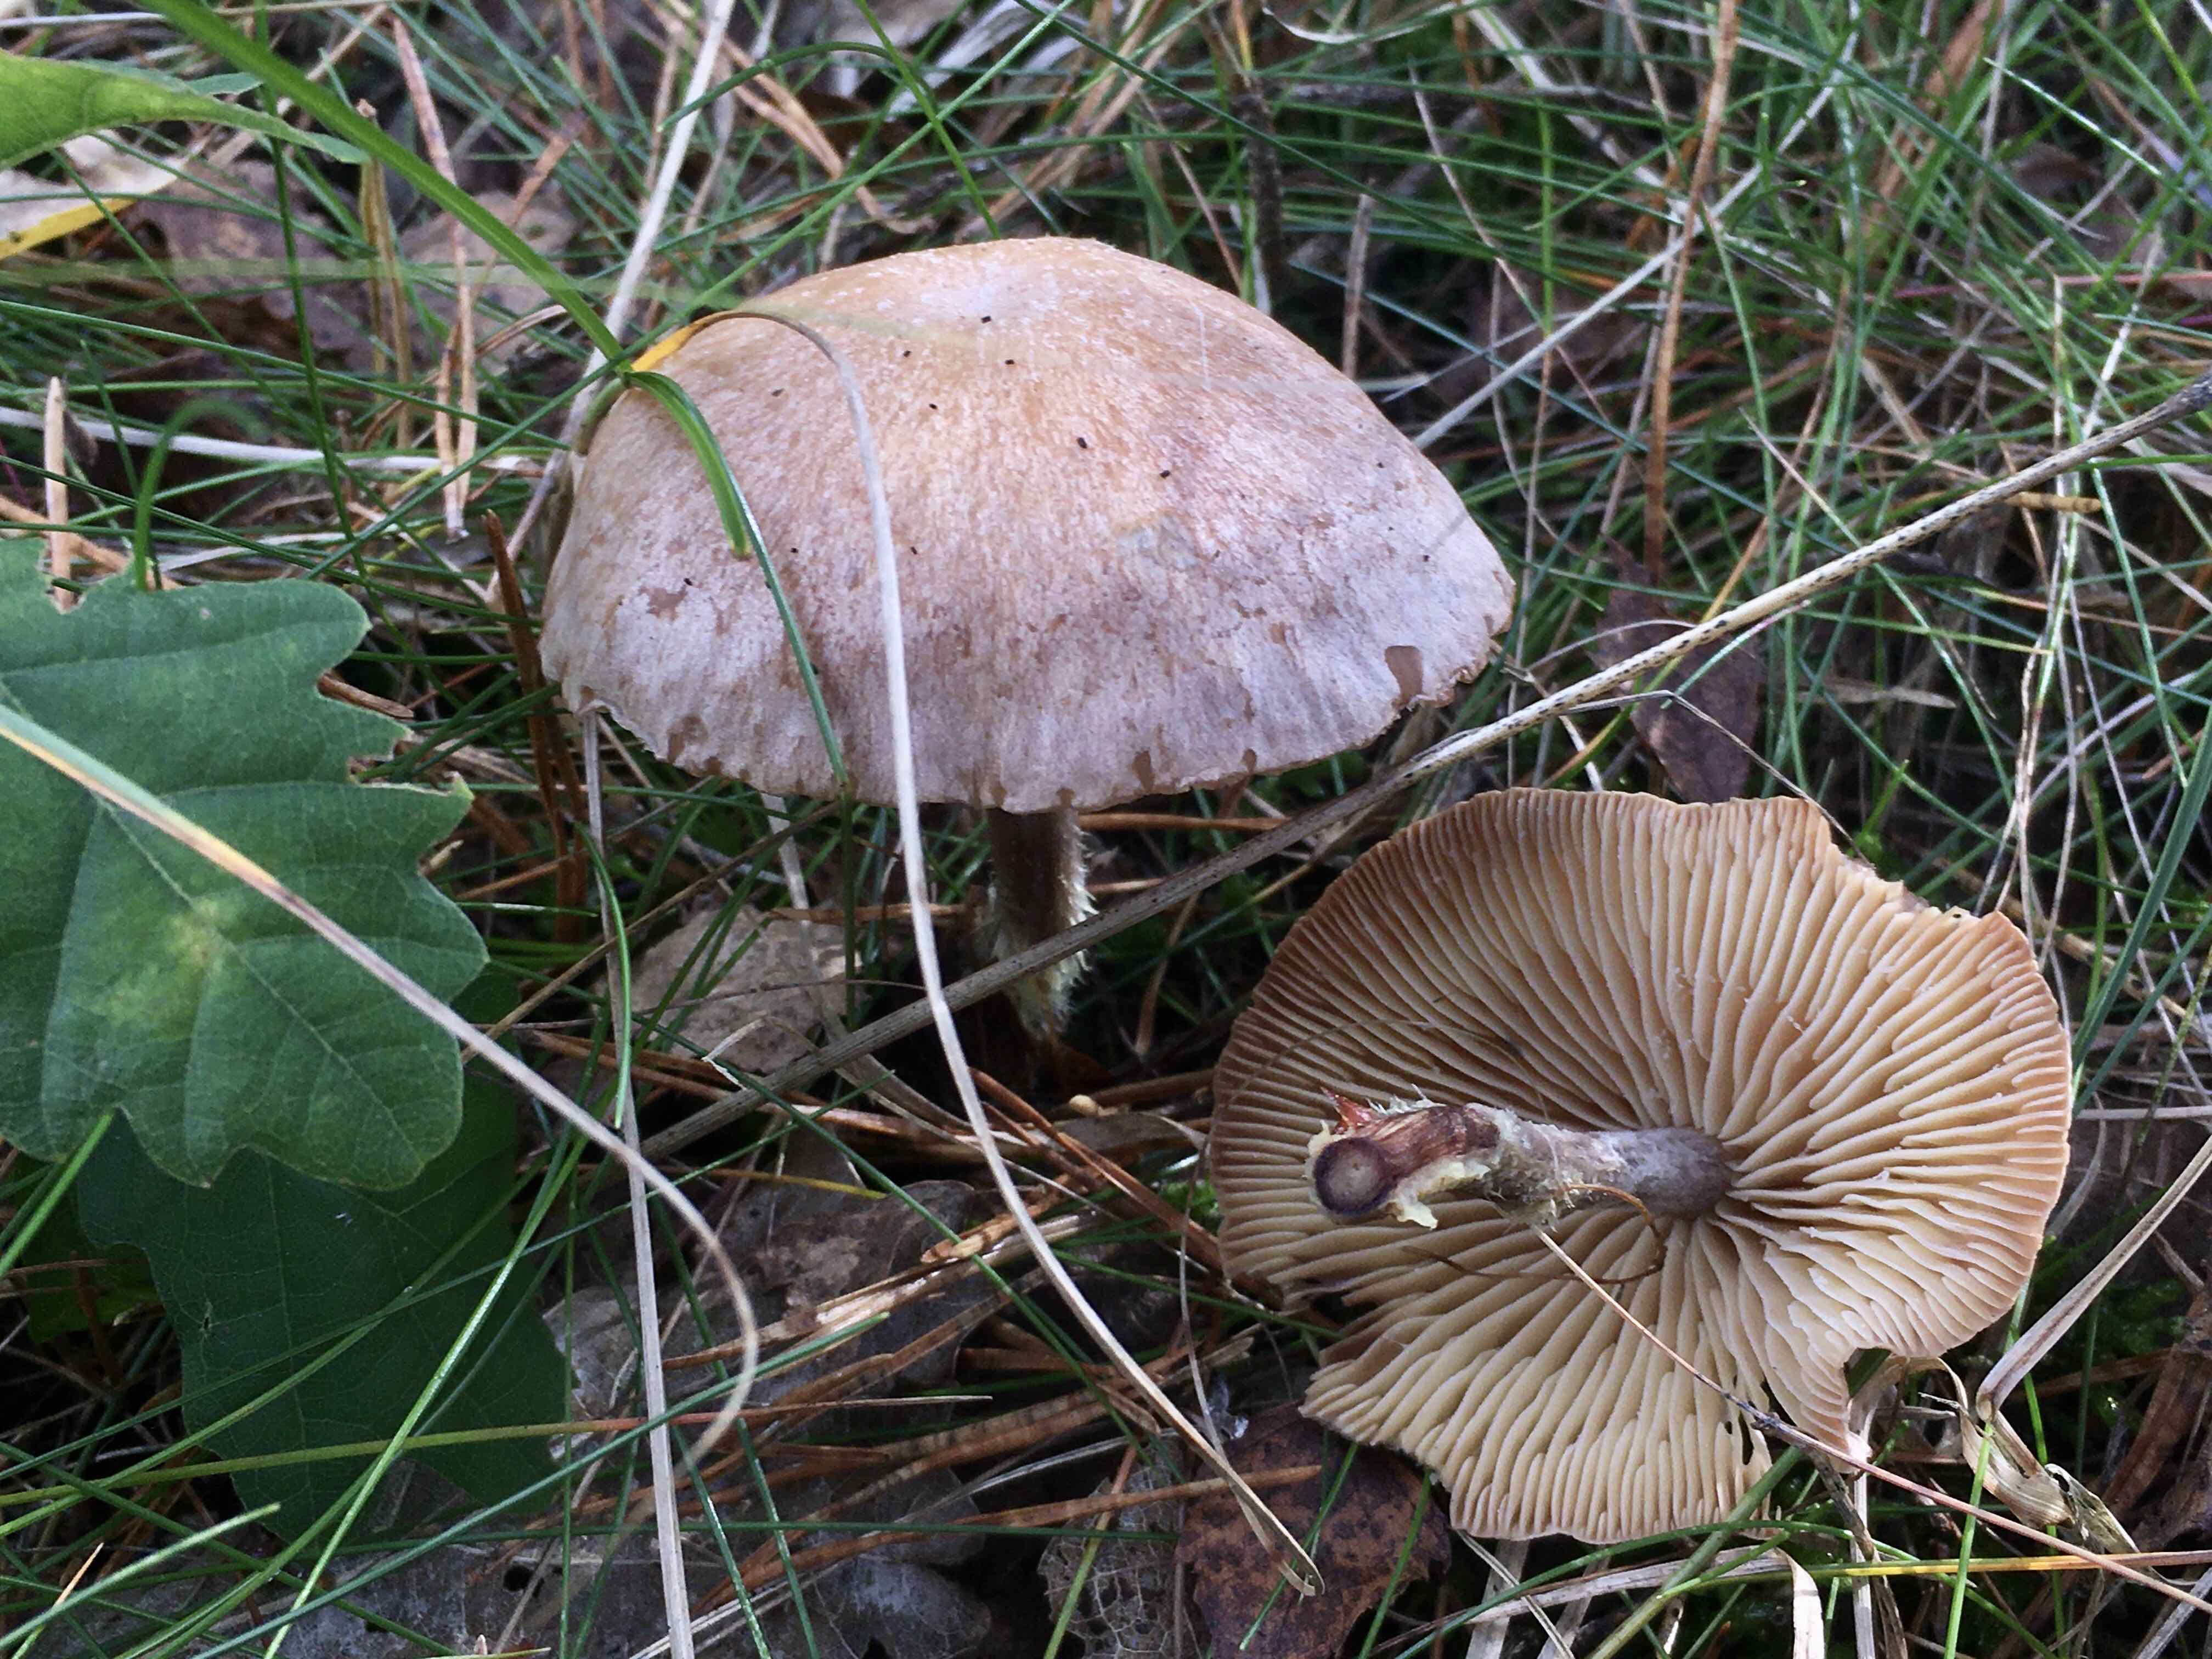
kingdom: Fungi
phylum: Basidiomycota
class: Agaricomycetes
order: Agaricales
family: Omphalotaceae
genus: Collybiopsis
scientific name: Collybiopsis peronata
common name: bestøvlet fladhat
